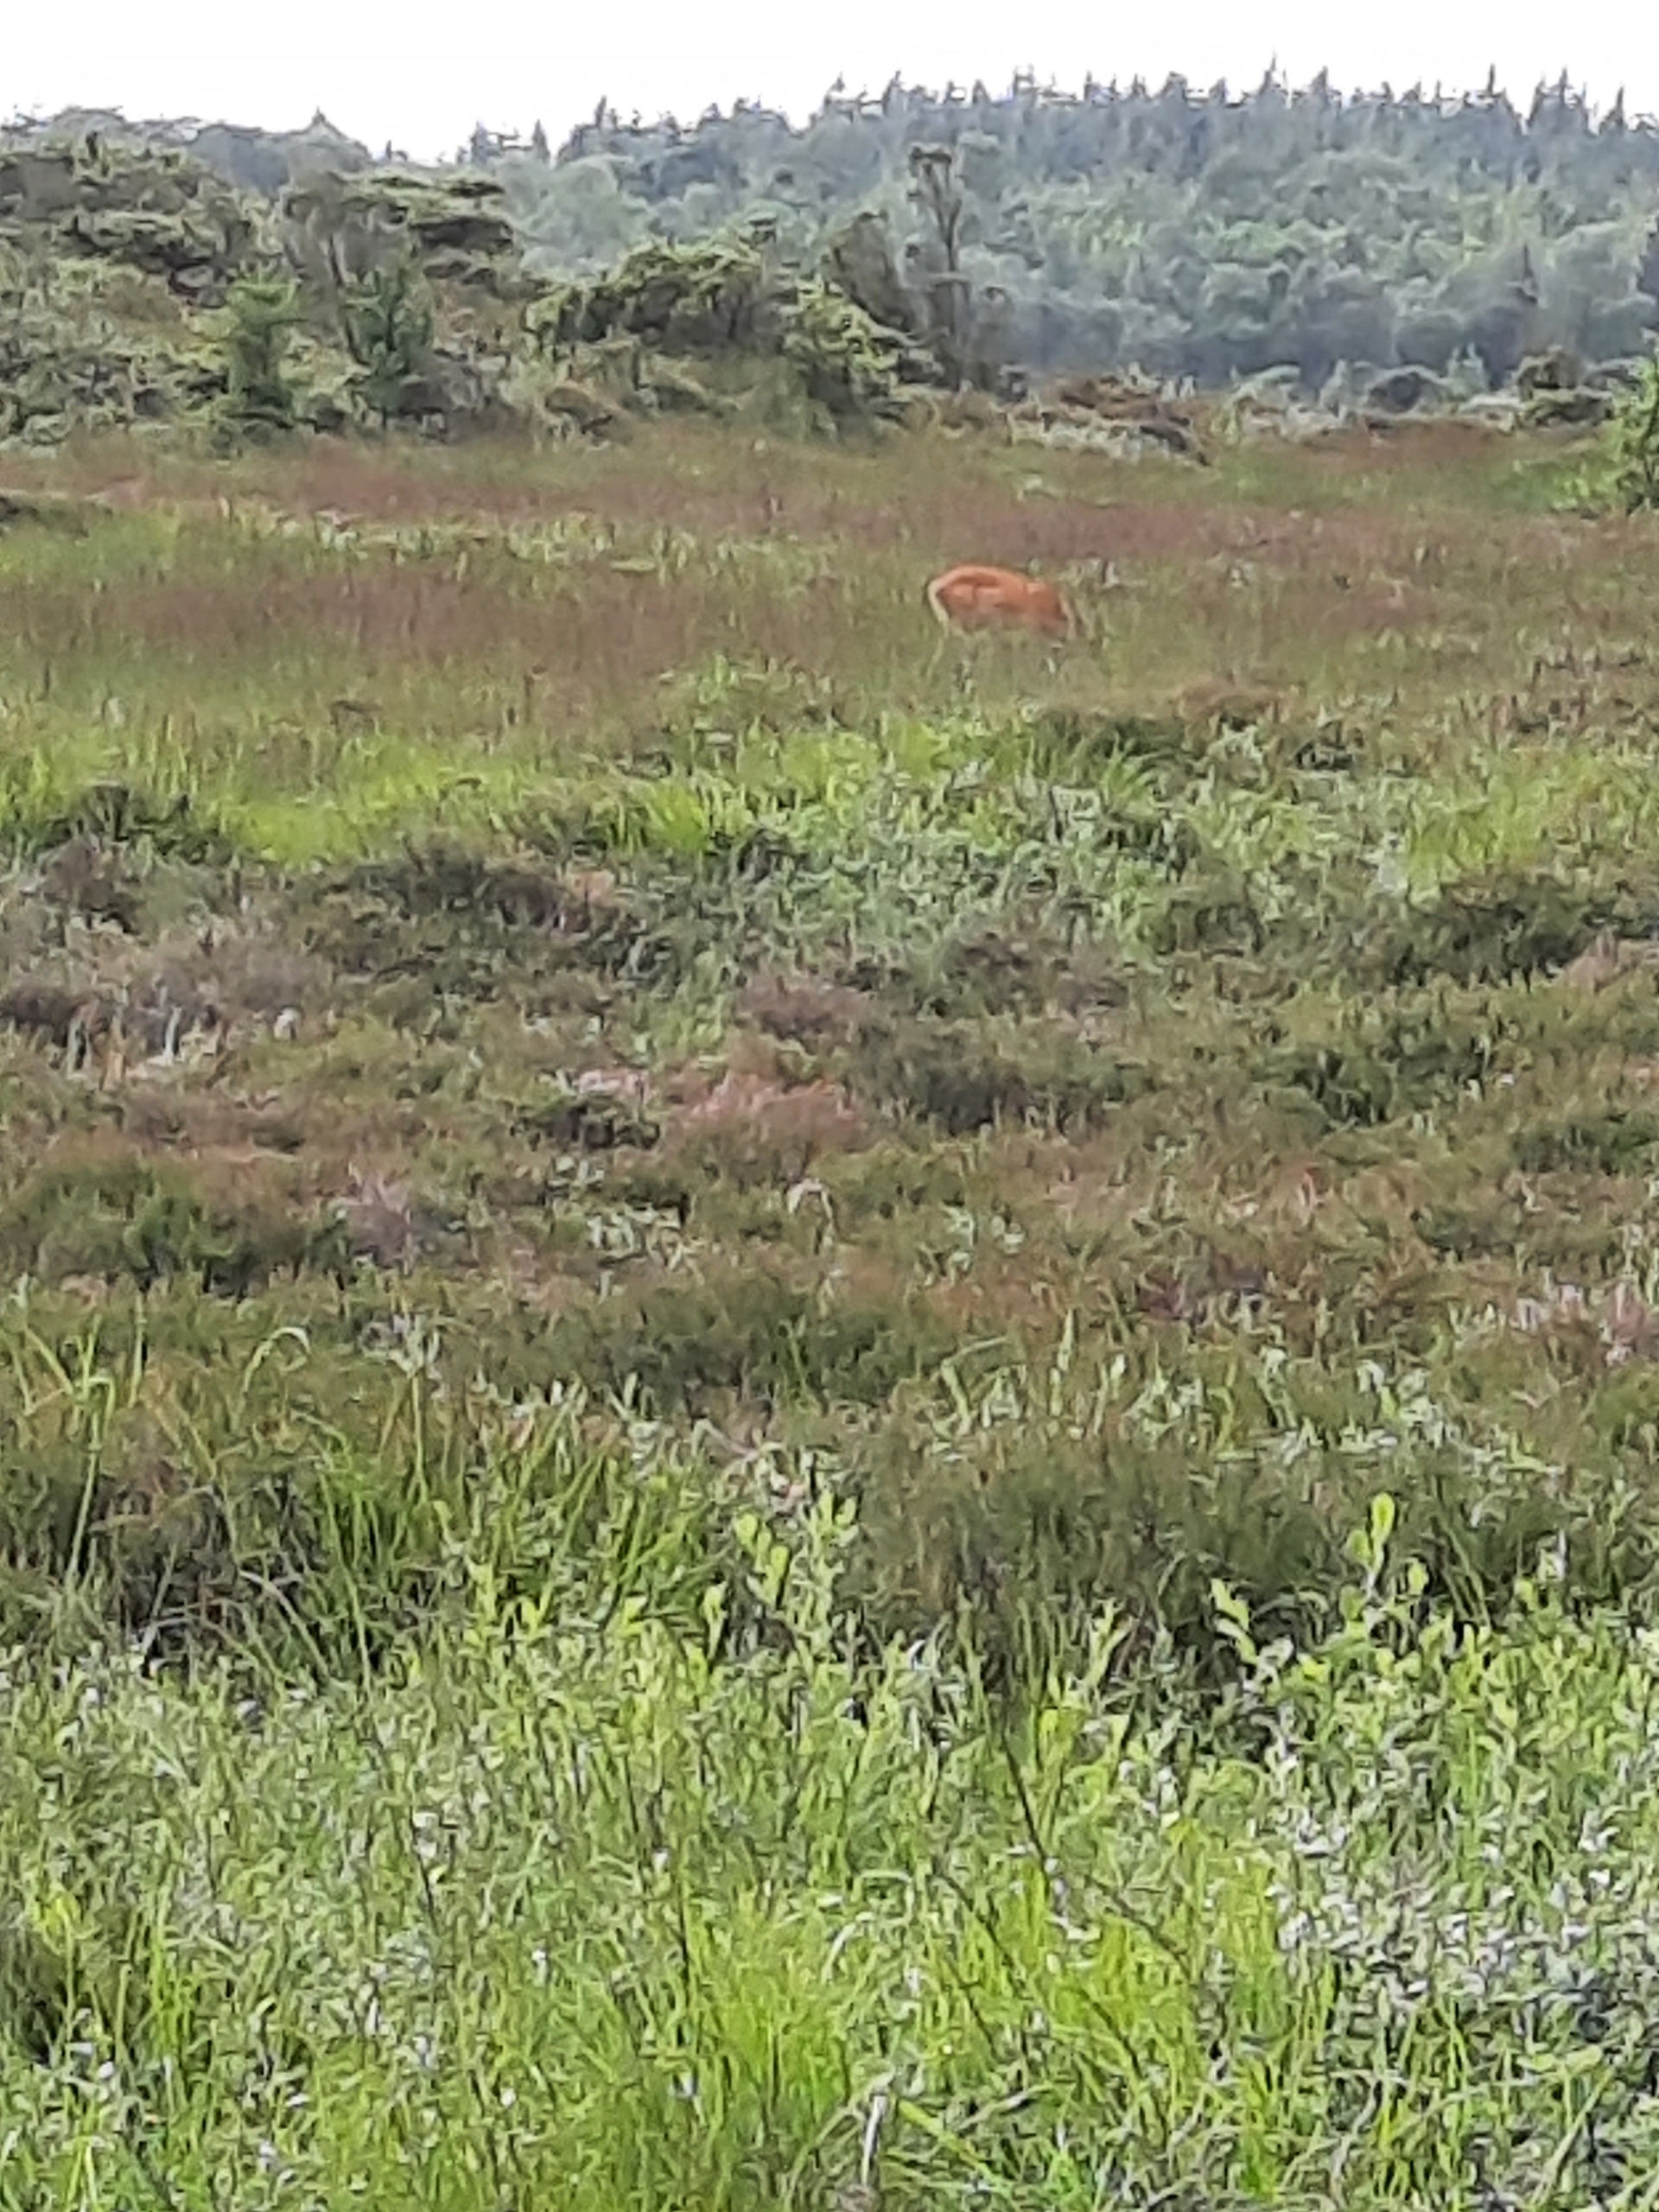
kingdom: Animalia
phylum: Chordata
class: Mammalia
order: Artiodactyla
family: Cervidae
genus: Cervus
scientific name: Cervus elaphus
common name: Krondyr
